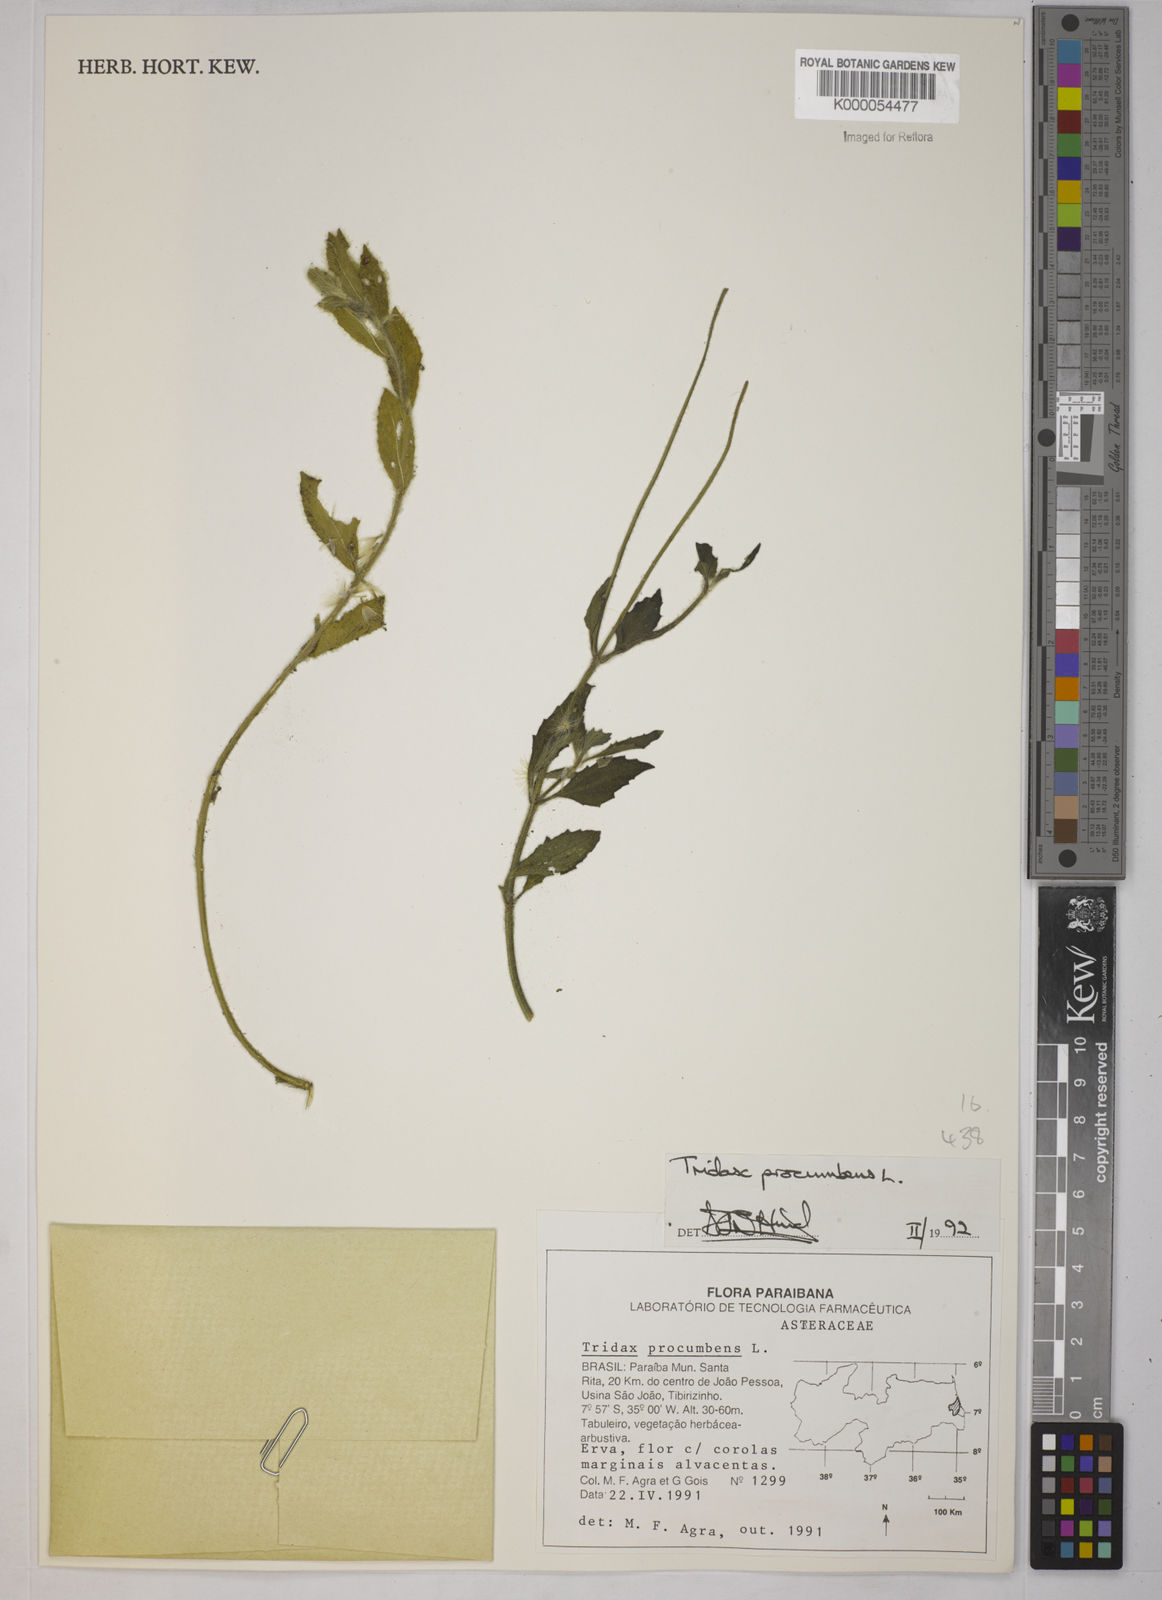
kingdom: Plantae
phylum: Tracheophyta
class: Magnoliopsida
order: Asterales
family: Asteraceae
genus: Tridax
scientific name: Tridax procumbens
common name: Coatbuttons
